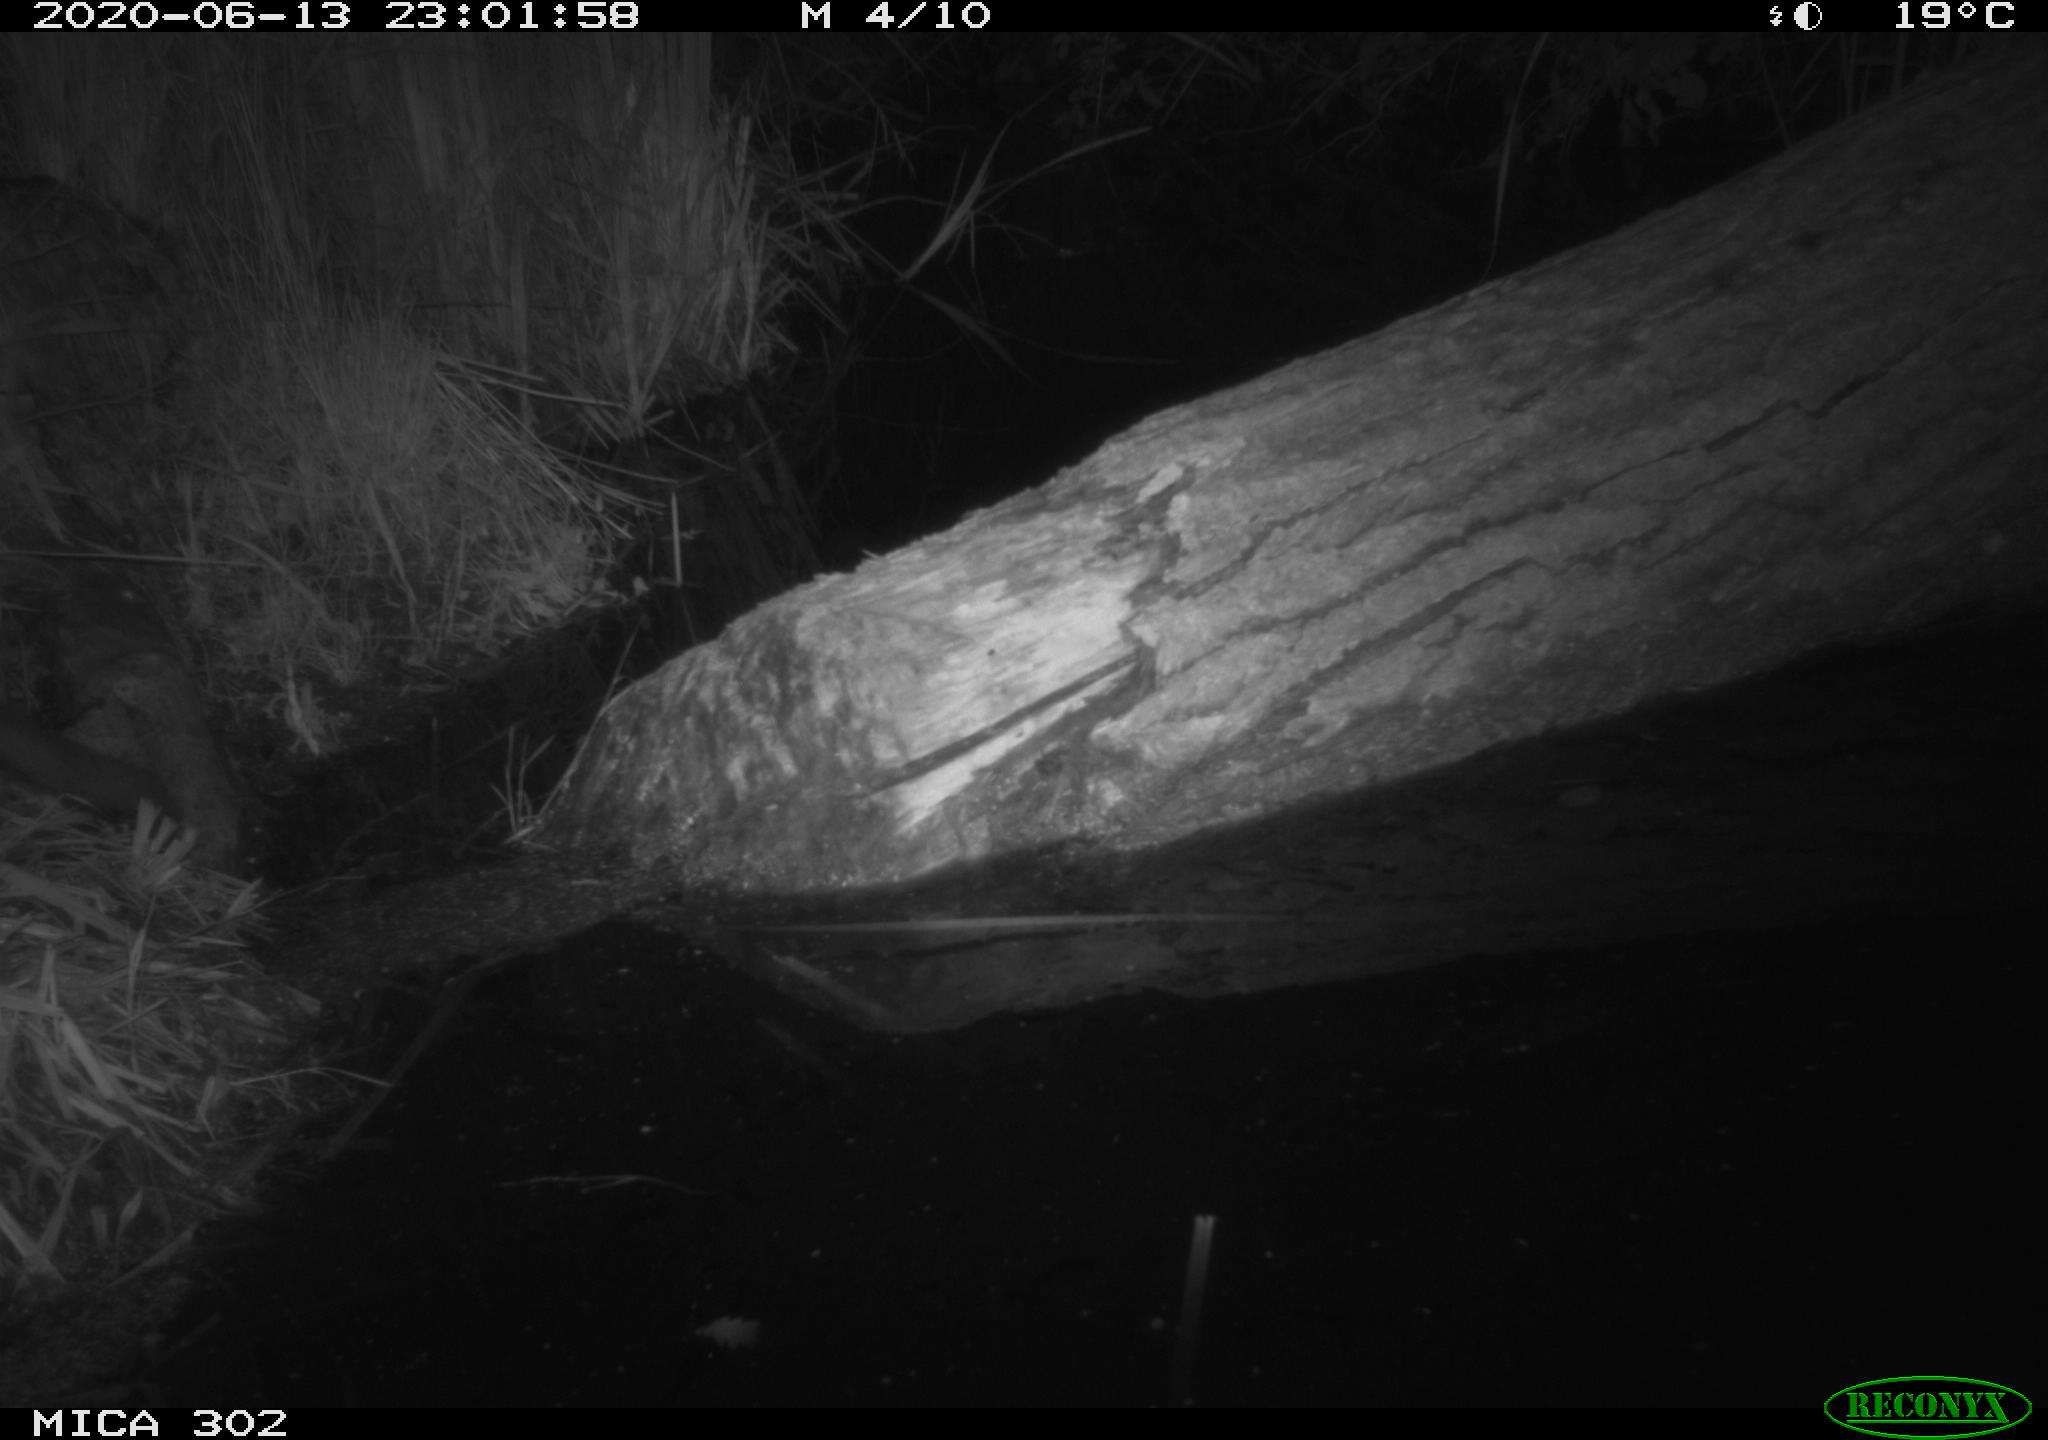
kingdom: Animalia
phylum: Chordata
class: Mammalia
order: Carnivora
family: Mustelidae
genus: Martes
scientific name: Martes foina
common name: Beech marten
